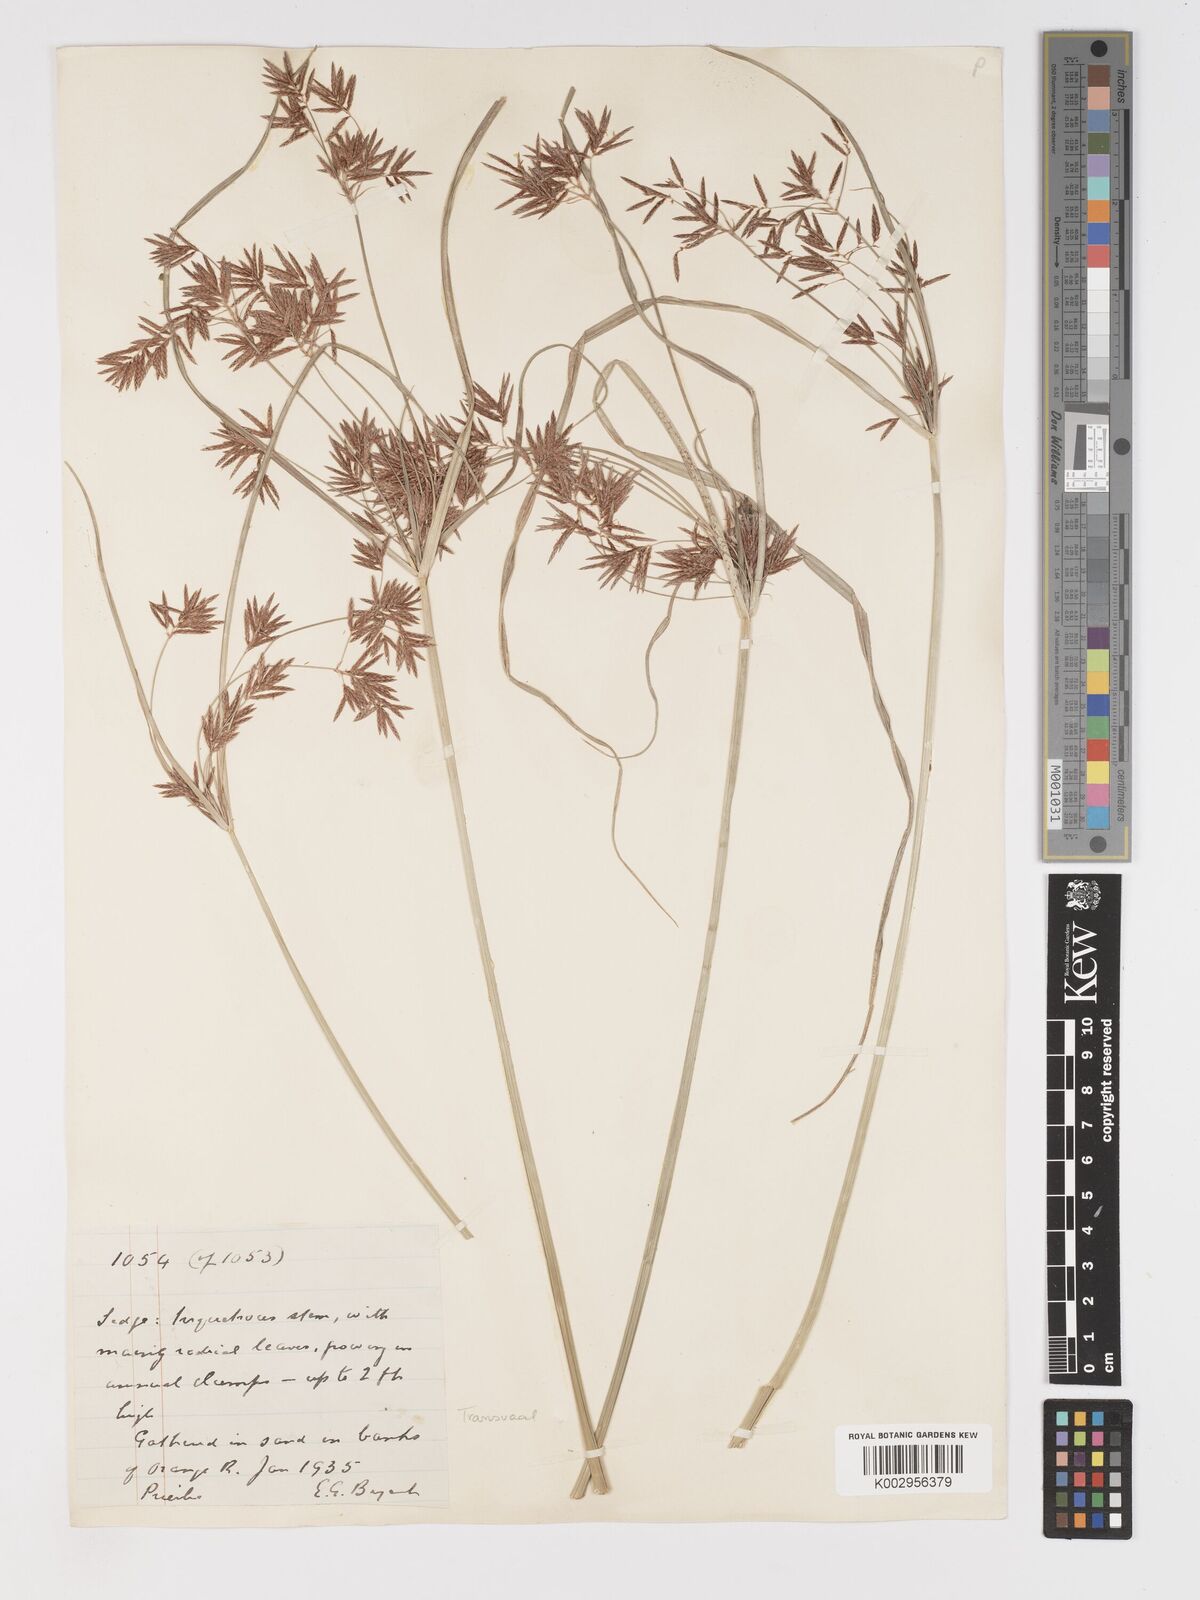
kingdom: Plantae
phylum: Tracheophyta
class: Liliopsida
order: Poales
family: Cyperaceae
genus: Cyperus
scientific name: Cyperus longus
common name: Galingale
